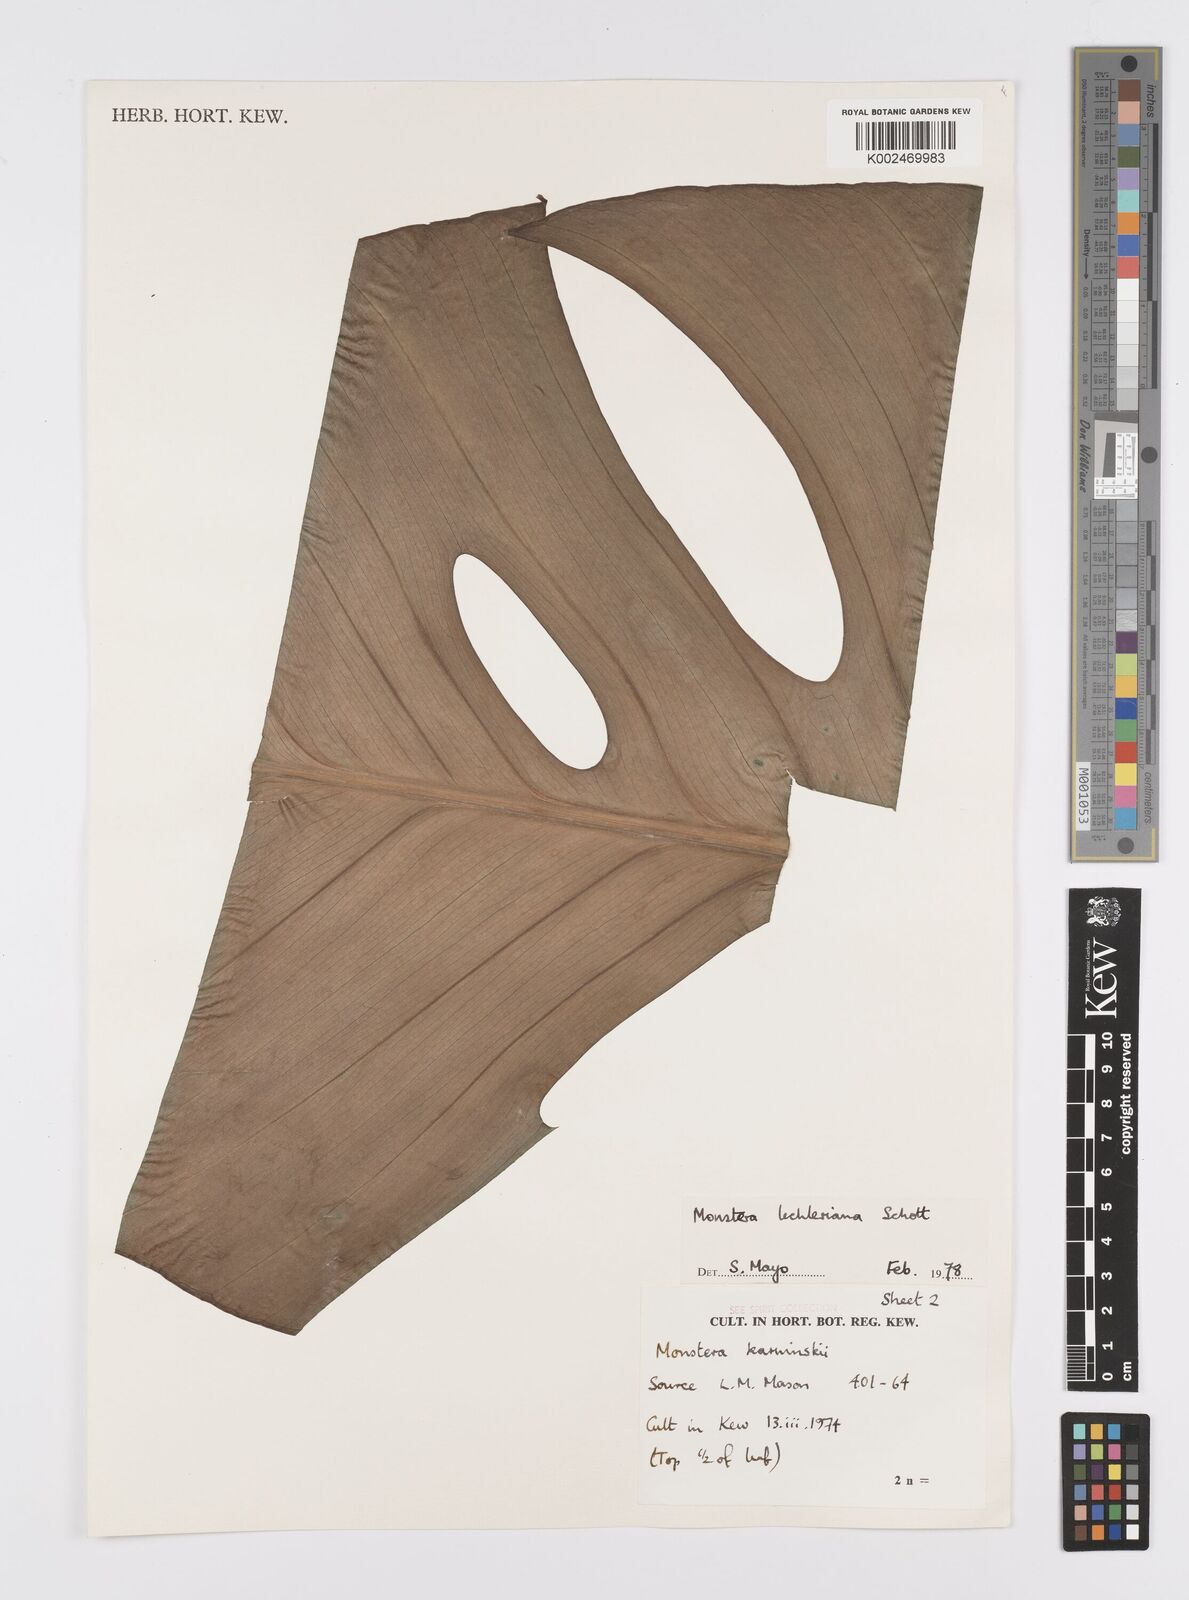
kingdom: Plantae
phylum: Tracheophyta
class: Liliopsida
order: Alismatales
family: Araceae
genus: Monstera
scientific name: Monstera lechleriana
